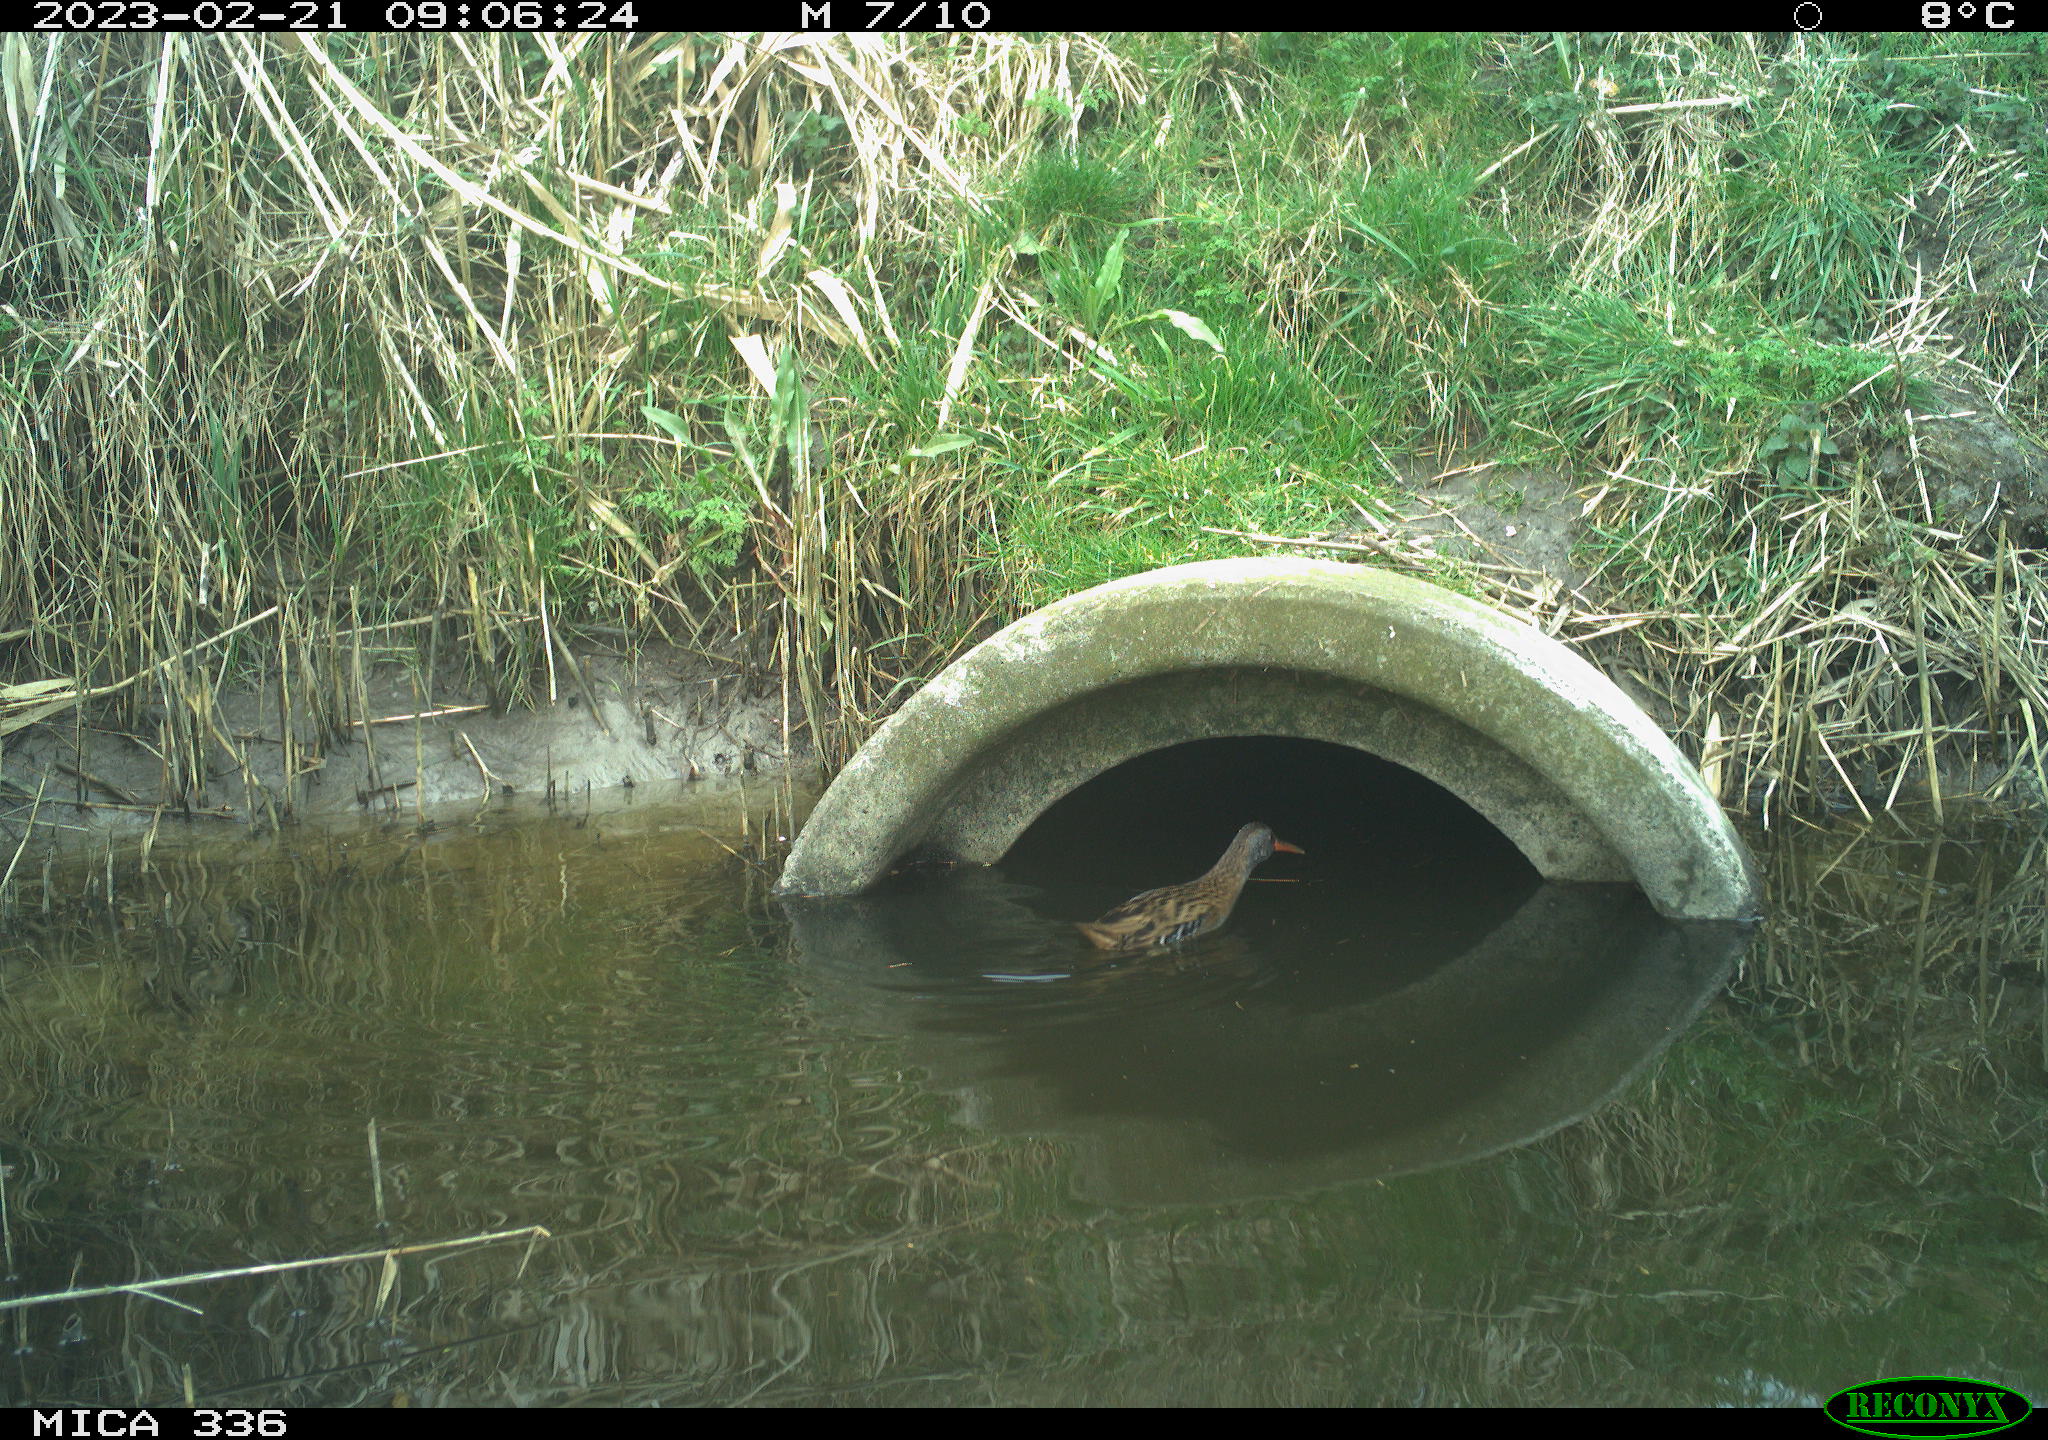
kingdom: Animalia
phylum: Chordata
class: Aves
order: Gruiformes
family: Rallidae
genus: Rallus
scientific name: Rallus aquaticus
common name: Water rail
